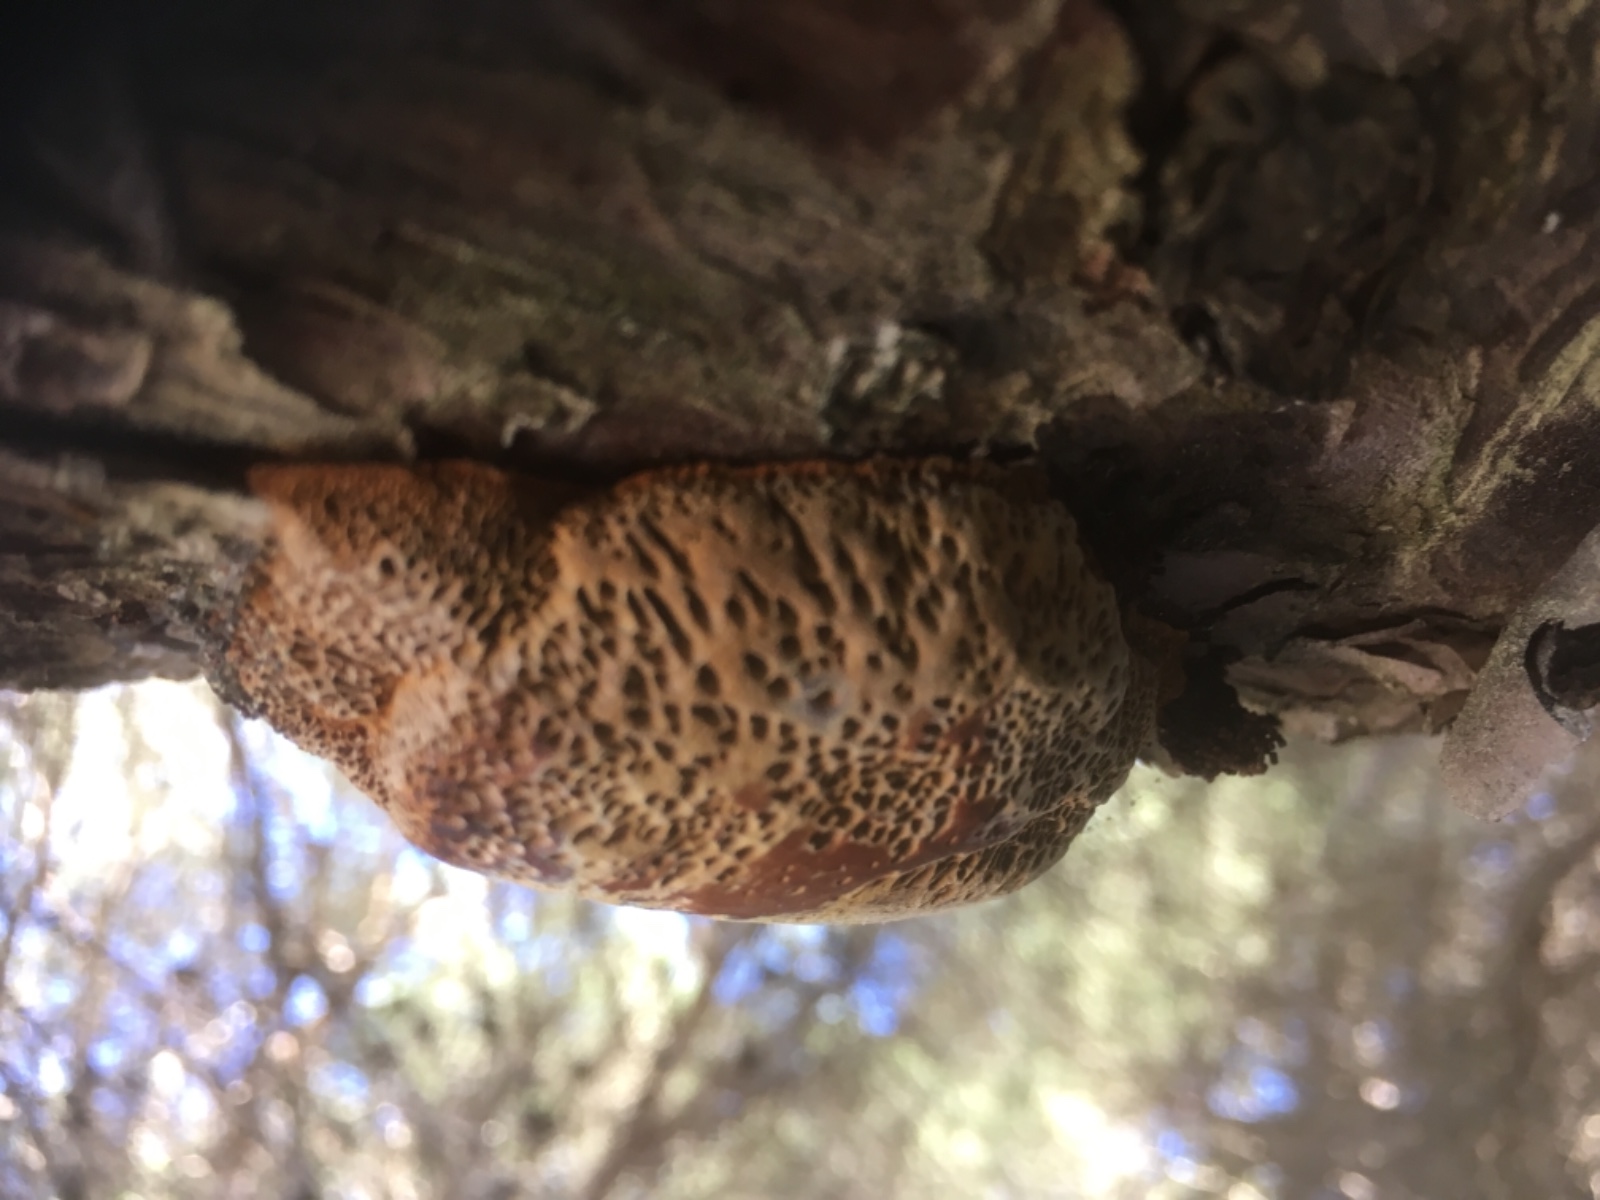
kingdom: Fungi
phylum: Basidiomycota
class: Agaricomycetes
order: Polyporales
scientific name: Polyporales
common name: poresvampordenen
